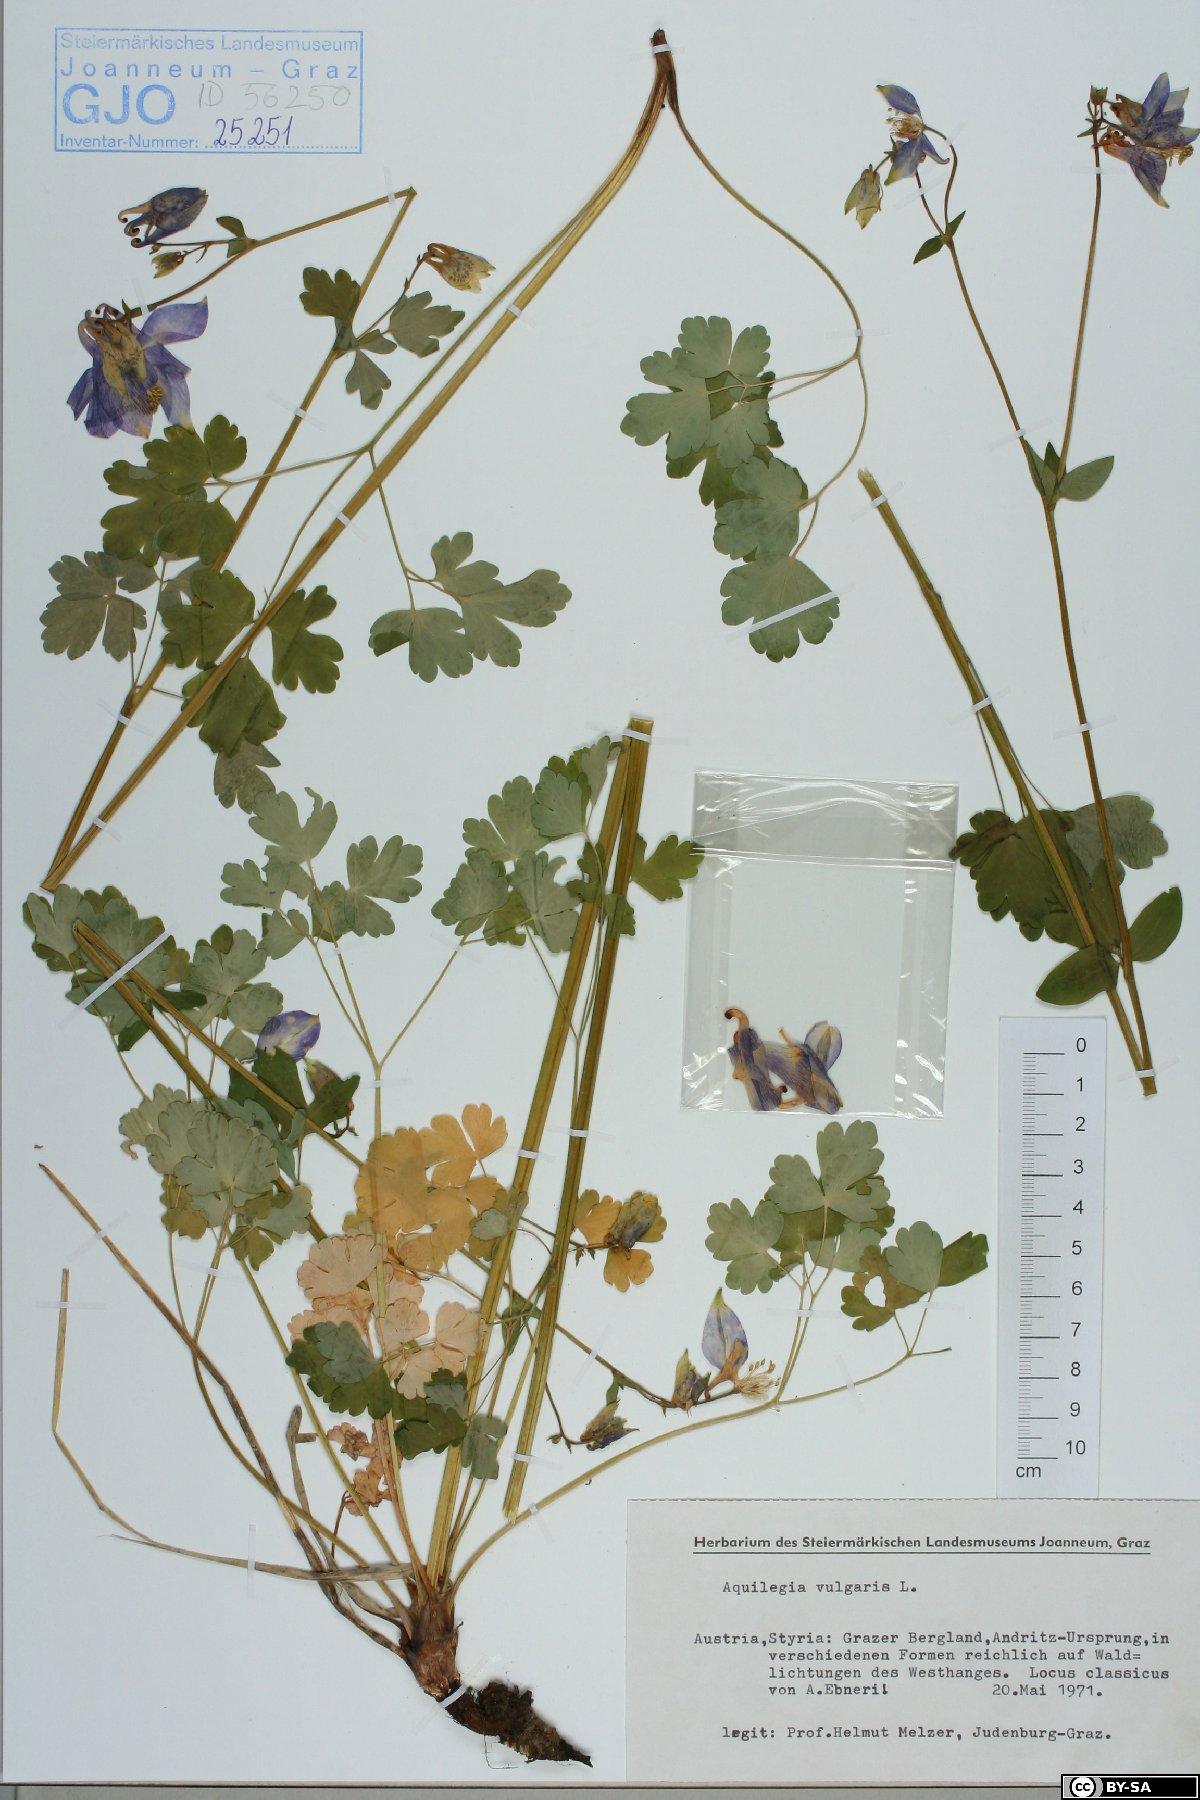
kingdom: Plantae
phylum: Tracheophyta
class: Magnoliopsida
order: Ranunculales
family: Ranunculaceae
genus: Aquilegia
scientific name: Aquilegia vulgaris
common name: Columbine
